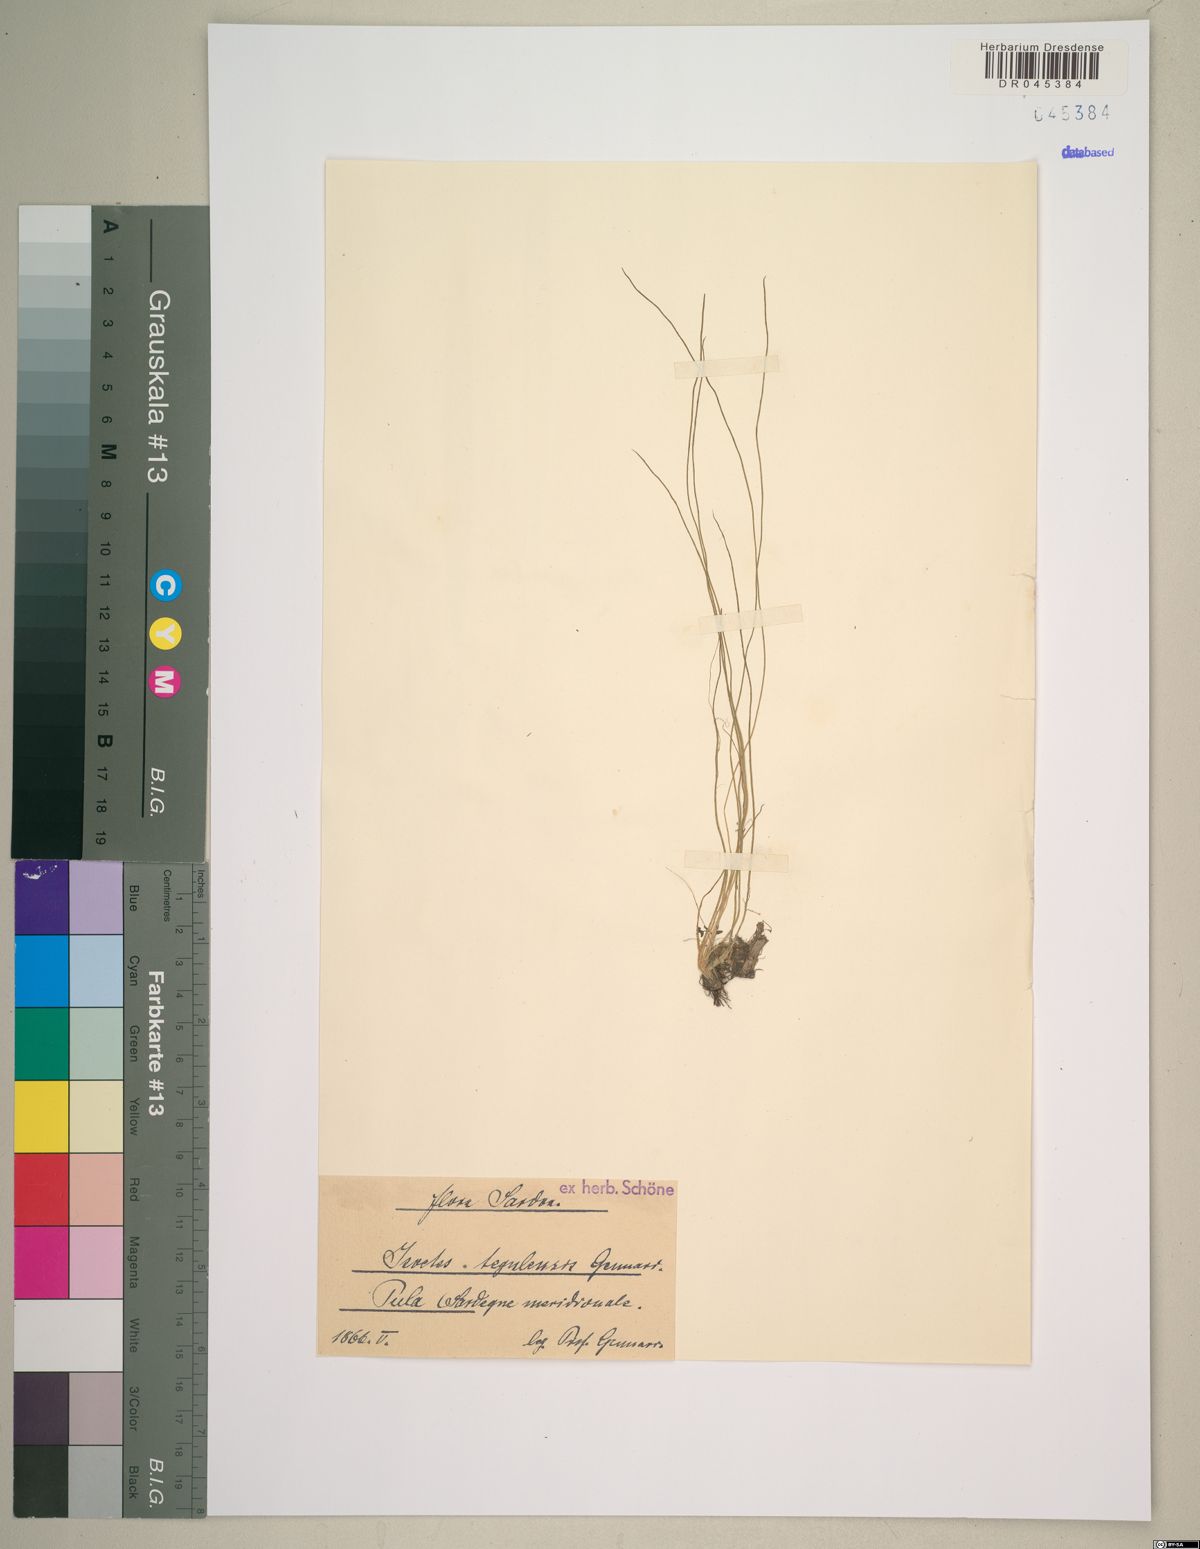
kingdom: Plantae
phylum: Tracheophyta
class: Lycopodiopsida
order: Isoetales
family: Isoetaceae
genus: Isoetes
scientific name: Isoetes tiguliana
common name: Sardinian quillwort
